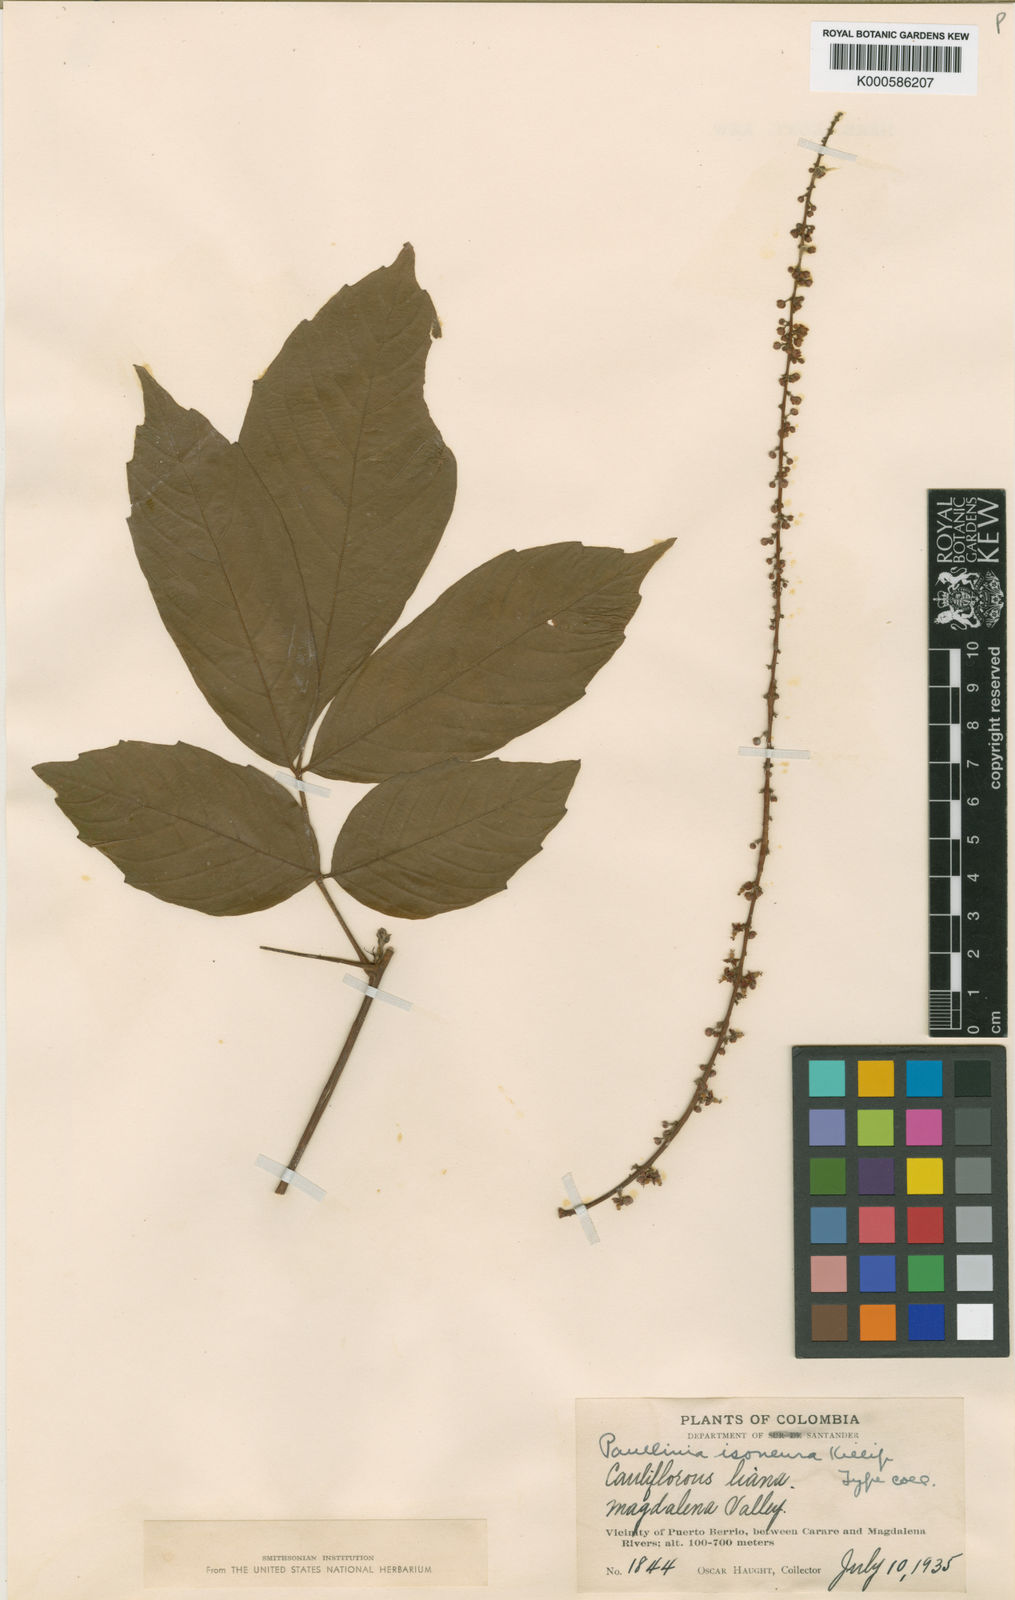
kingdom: Plantae
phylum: Tracheophyta
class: Magnoliopsida
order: Sapindales
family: Sapindaceae
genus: Paullinia
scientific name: Paullinia
